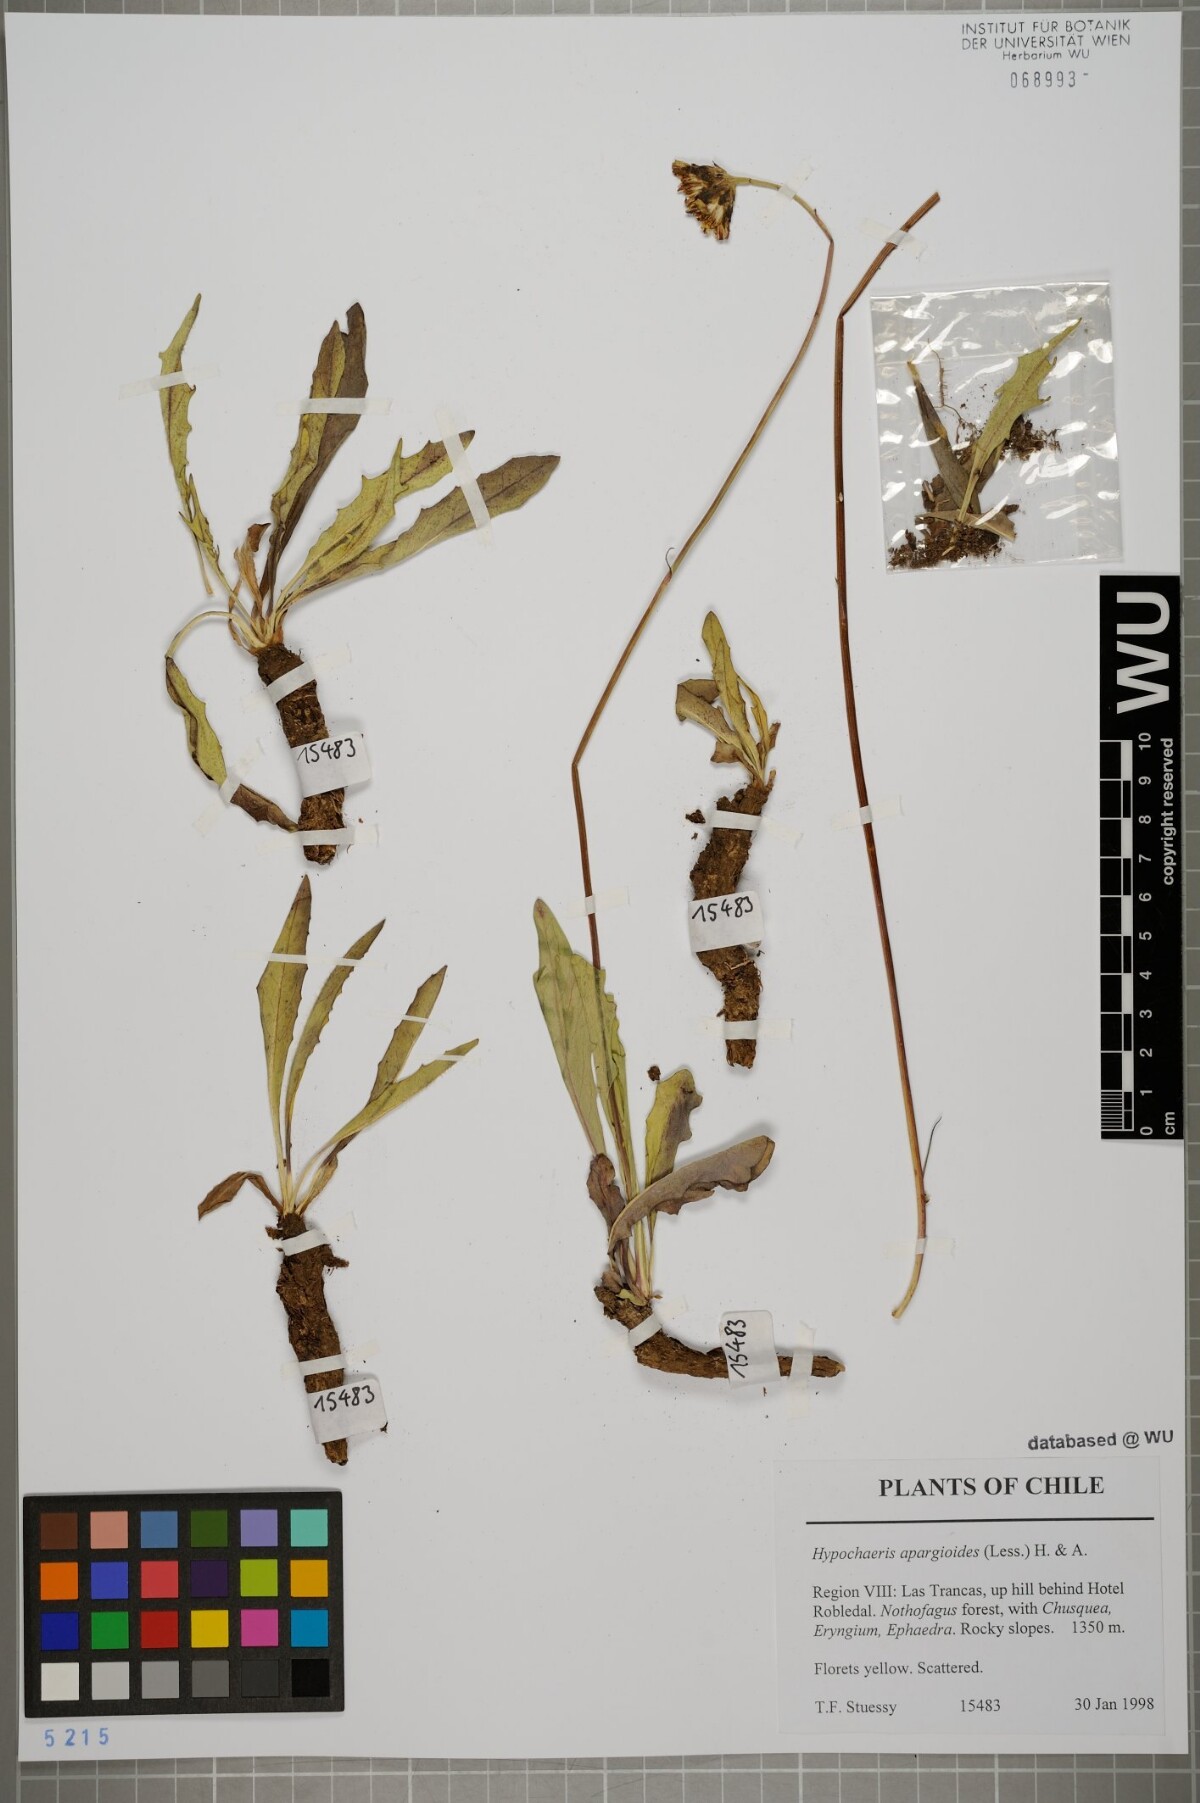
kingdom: Plantae
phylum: Tracheophyta
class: Magnoliopsida
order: Asterales
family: Asteraceae
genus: Hypochaeris
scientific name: Hypochaeris apargioides
